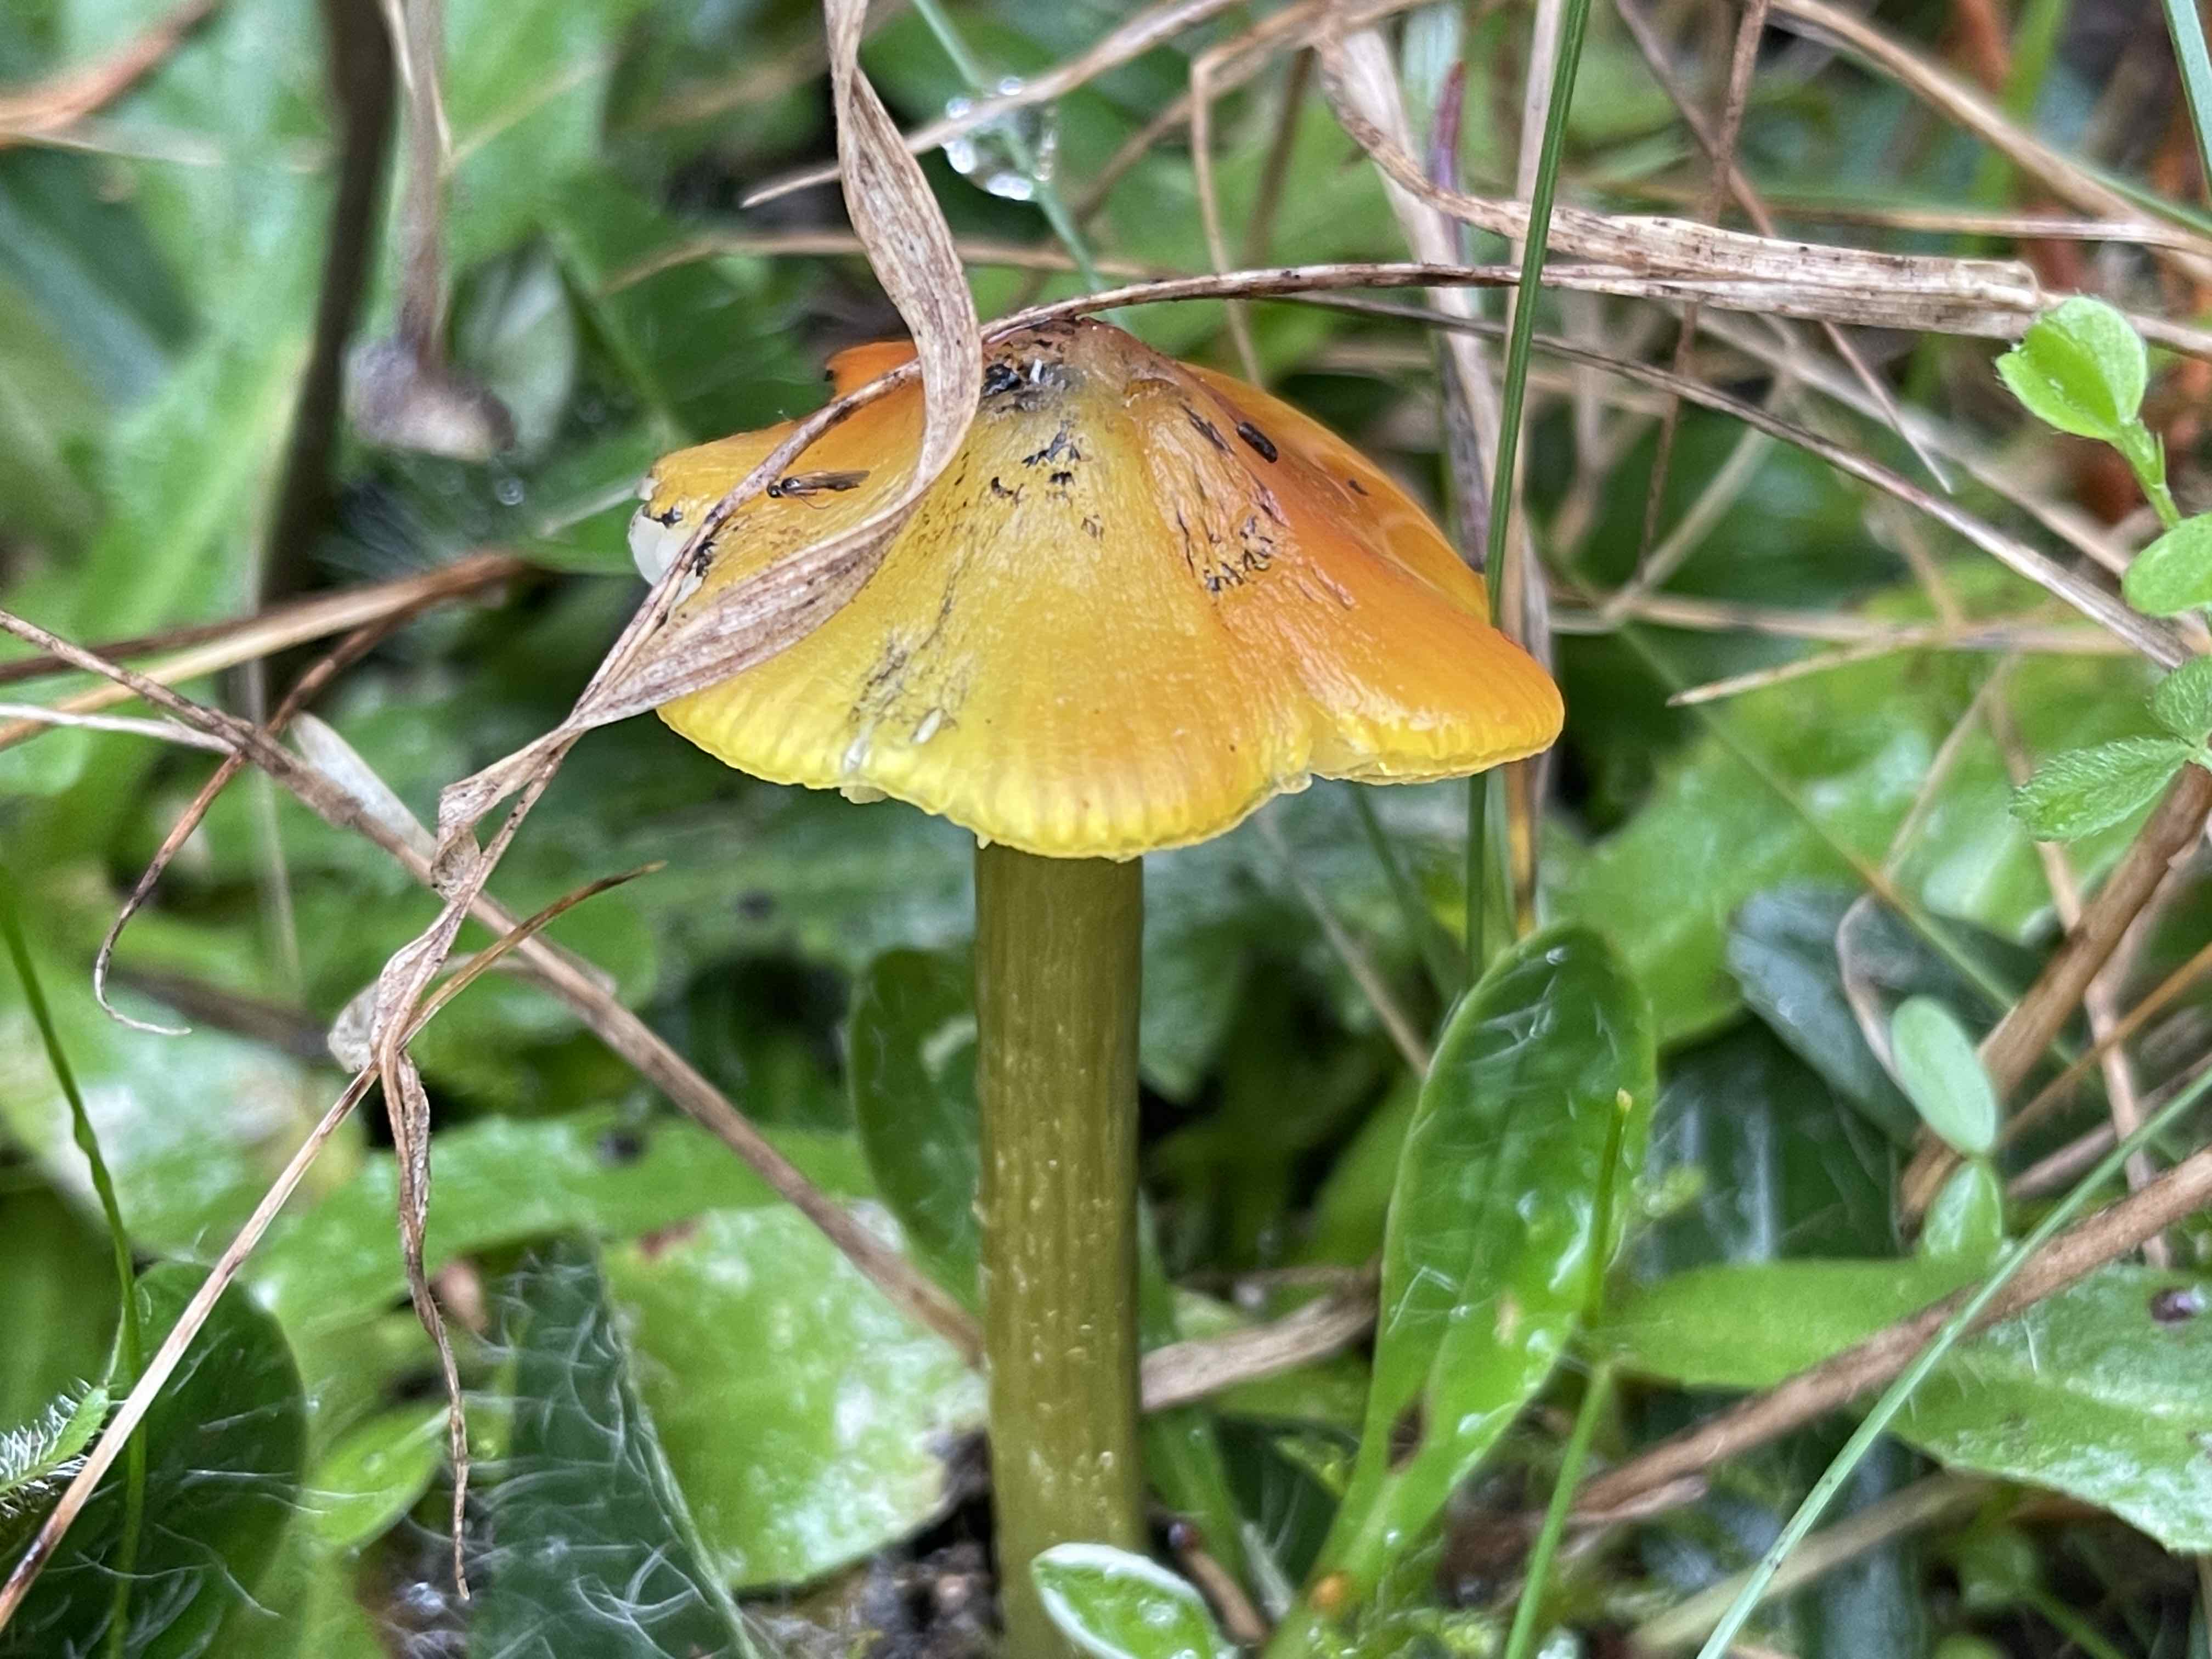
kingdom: Fungi
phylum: Basidiomycota
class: Agaricomycetes
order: Agaricales
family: Hygrophoraceae
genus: Hygrocybe
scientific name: Hygrocybe conica
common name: kegle-vokshat
